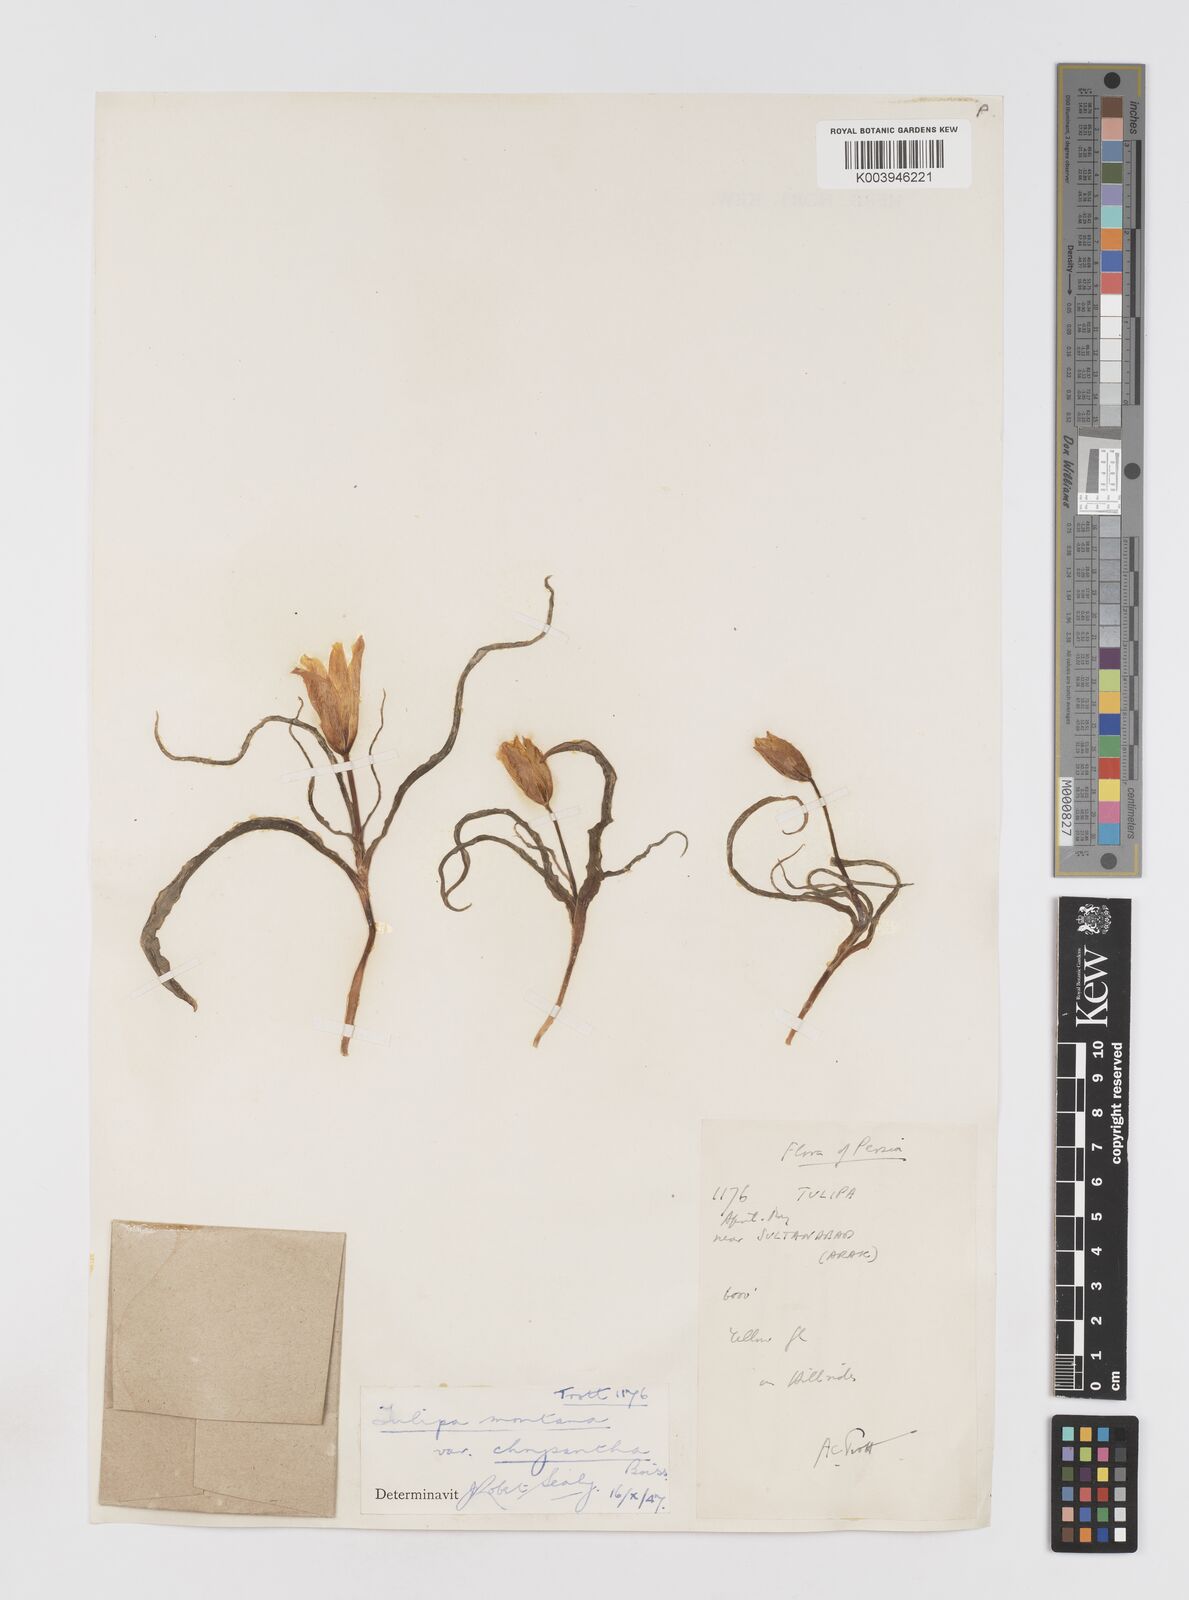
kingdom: Plantae
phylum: Tracheophyta
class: Liliopsida
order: Liliales
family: Liliaceae
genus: Tulipa
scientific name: Tulipa montana
